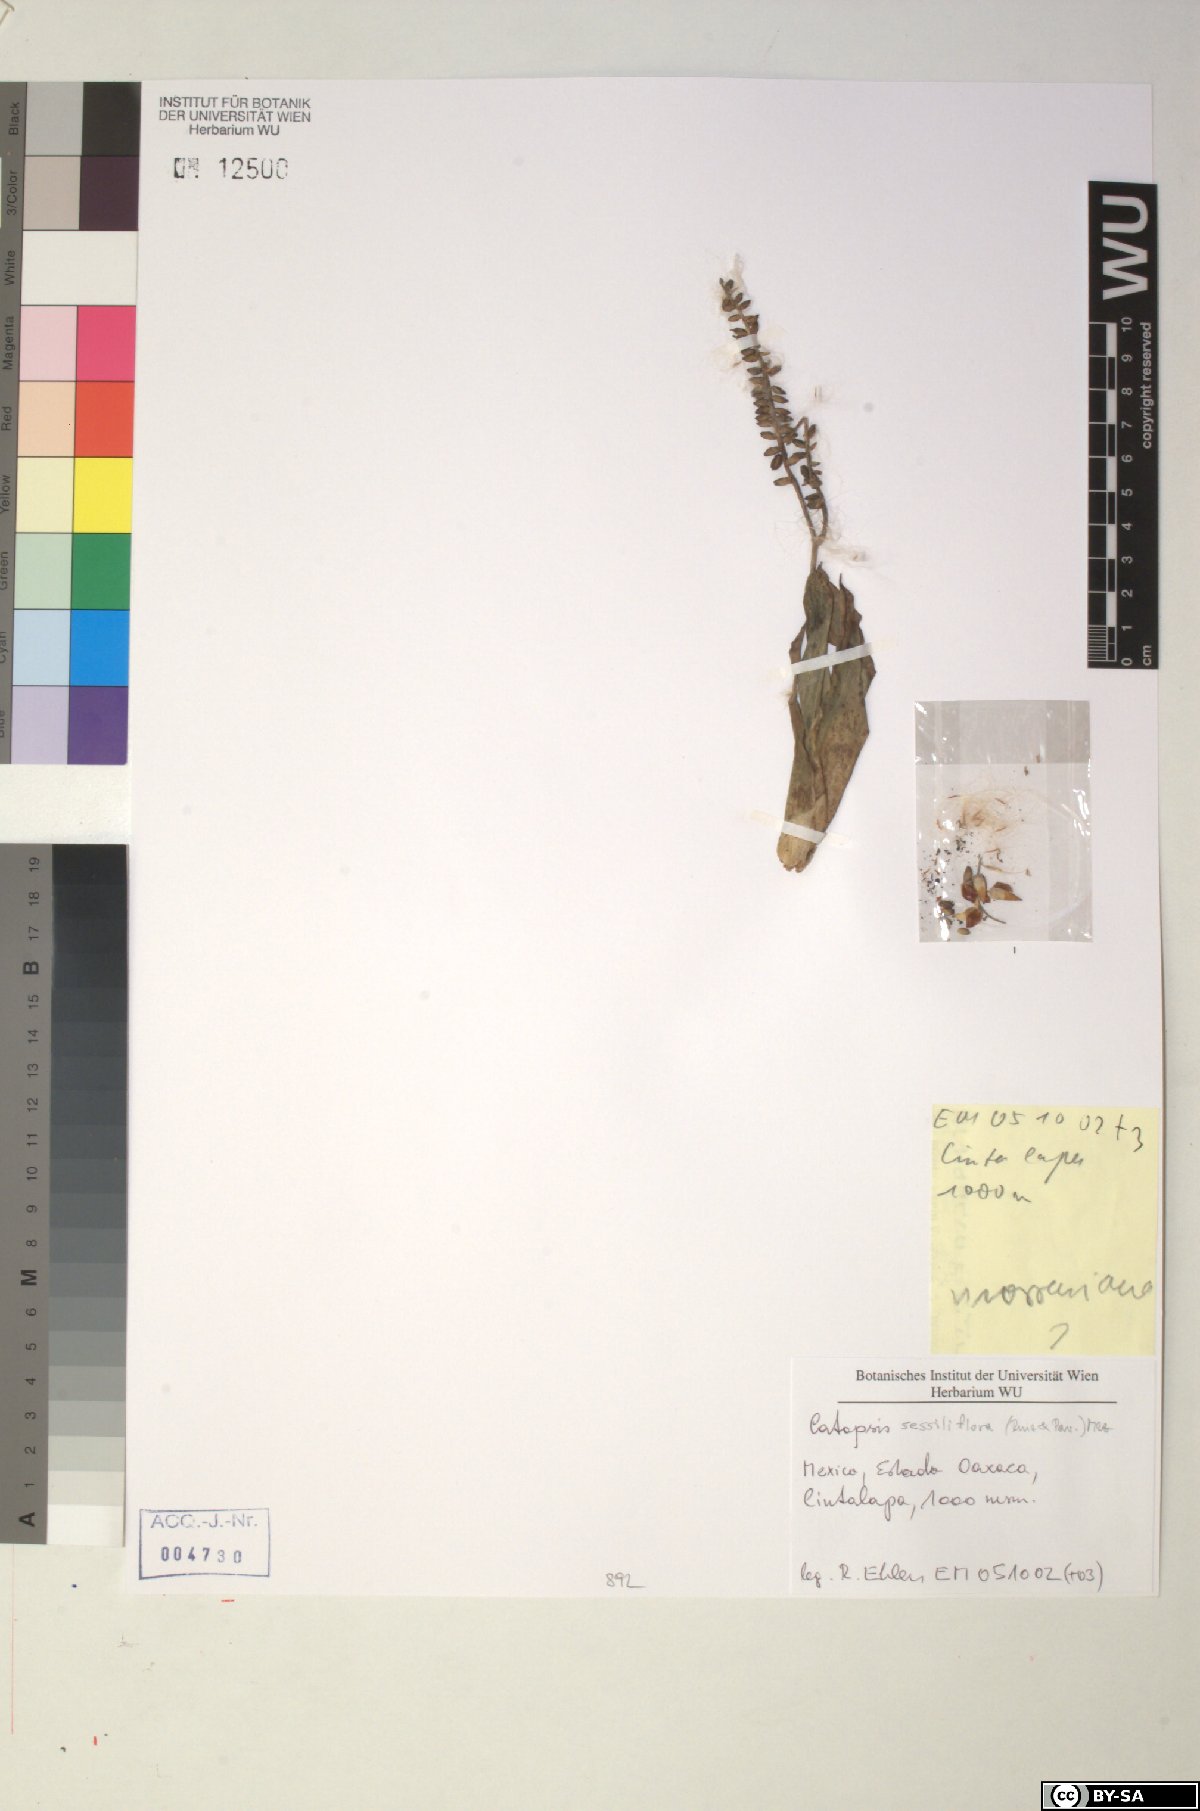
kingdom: Plantae
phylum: Tracheophyta
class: Liliopsida
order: Poales
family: Bromeliaceae
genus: Catopsis
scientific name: Catopsis sessiliflora
